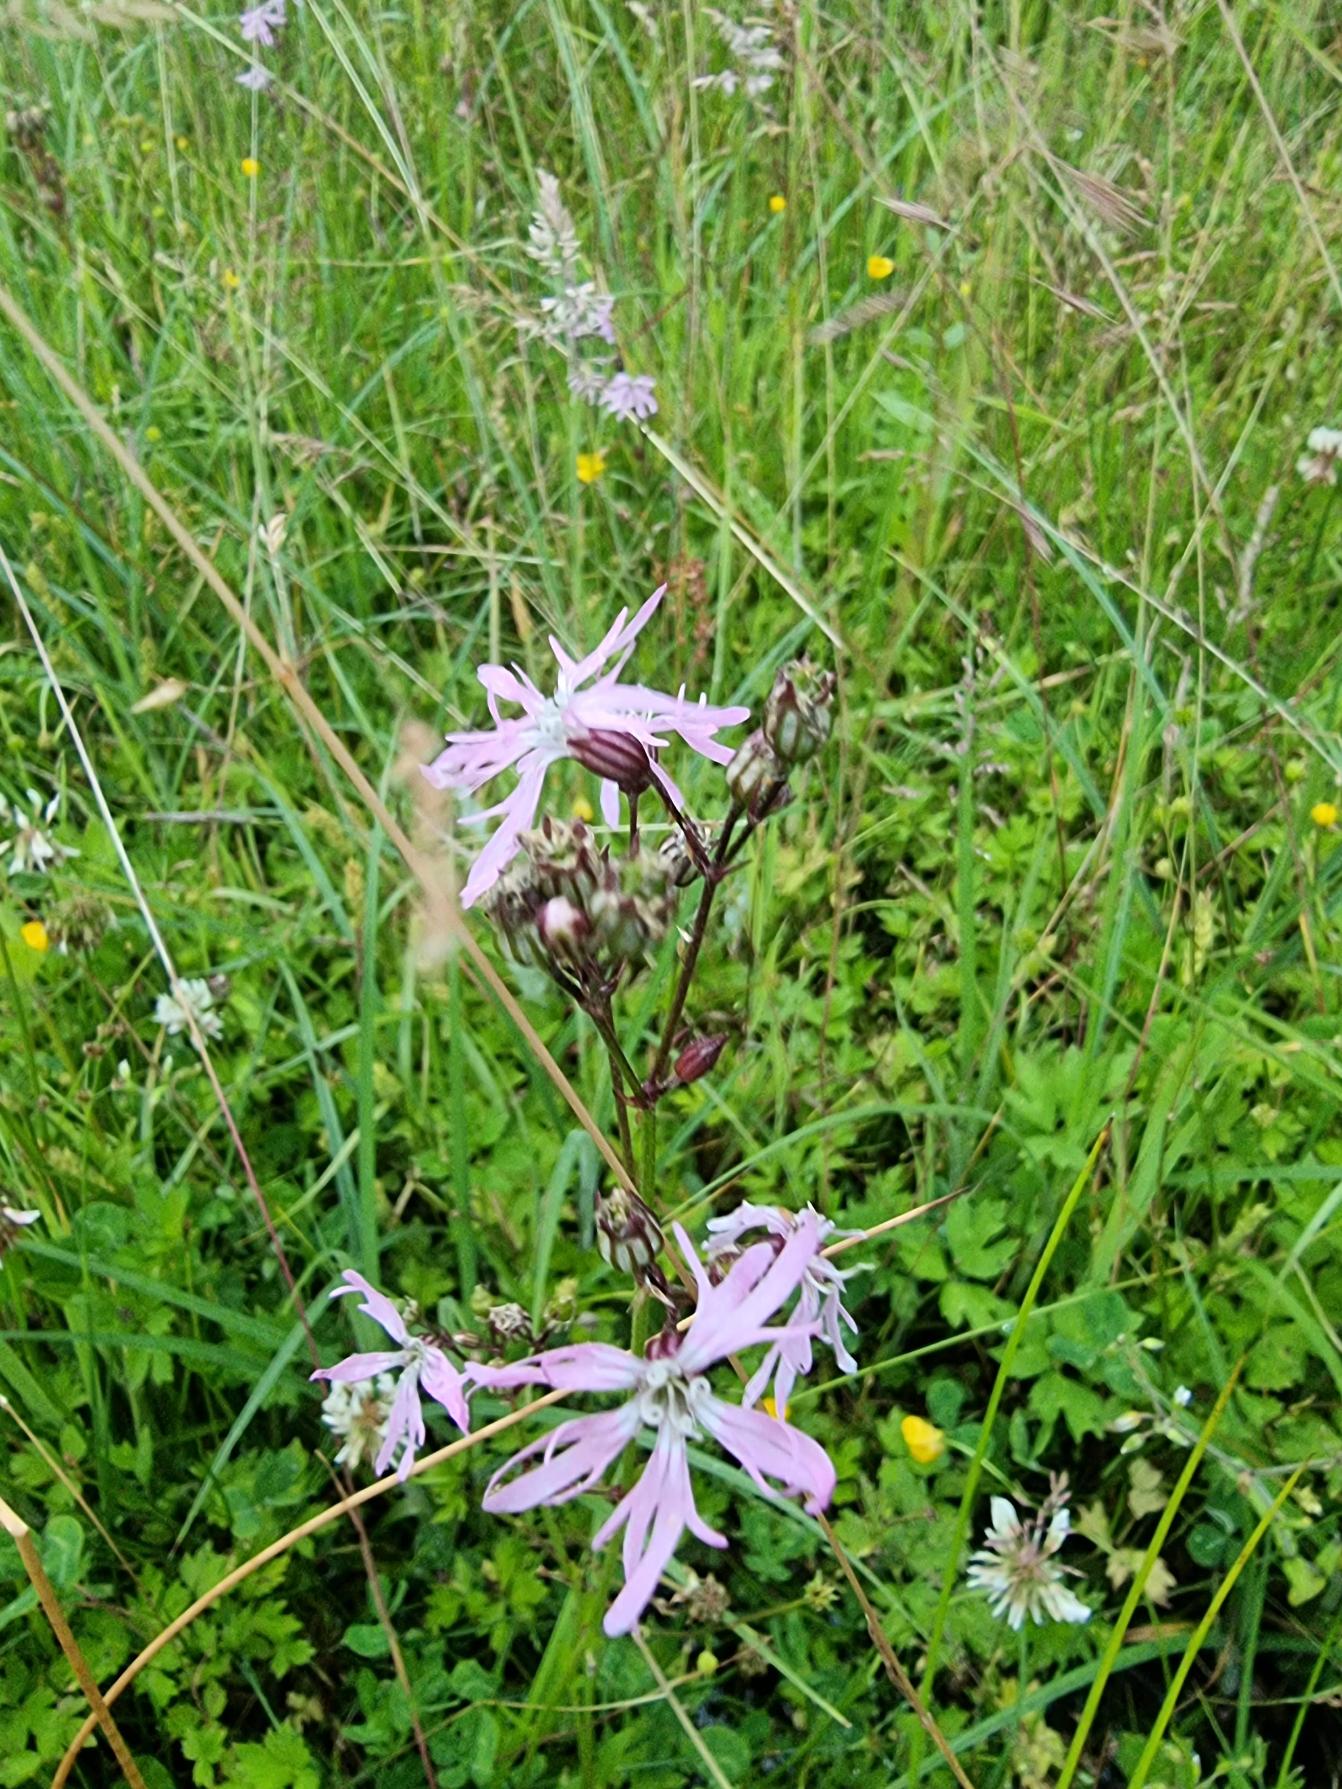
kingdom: Plantae
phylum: Tracheophyta
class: Magnoliopsida
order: Caryophyllales
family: Caryophyllaceae
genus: Silene
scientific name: Silene flos-cuculi
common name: Trævlekrone
